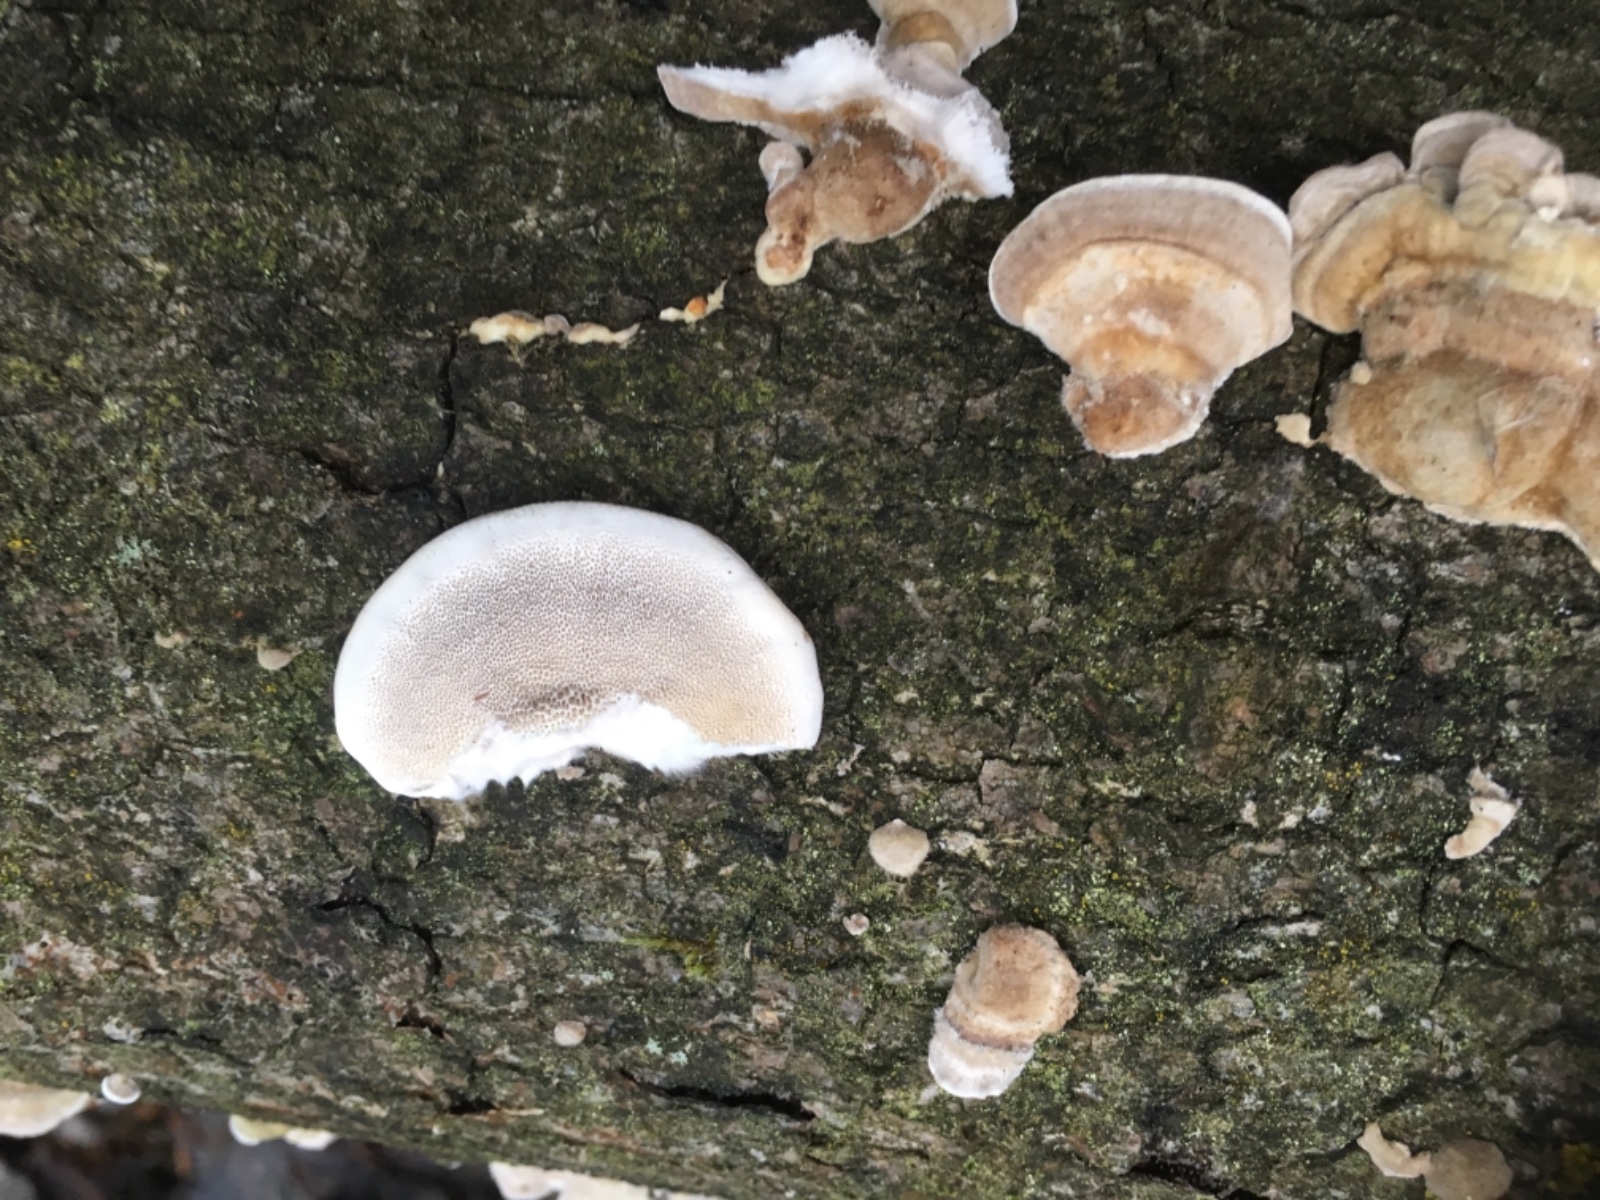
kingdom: Fungi
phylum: Basidiomycota
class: Agaricomycetes
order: Polyporales
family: Polyporaceae
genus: Trametes
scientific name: Trametes hirsuta
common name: håret læderporesvamp
